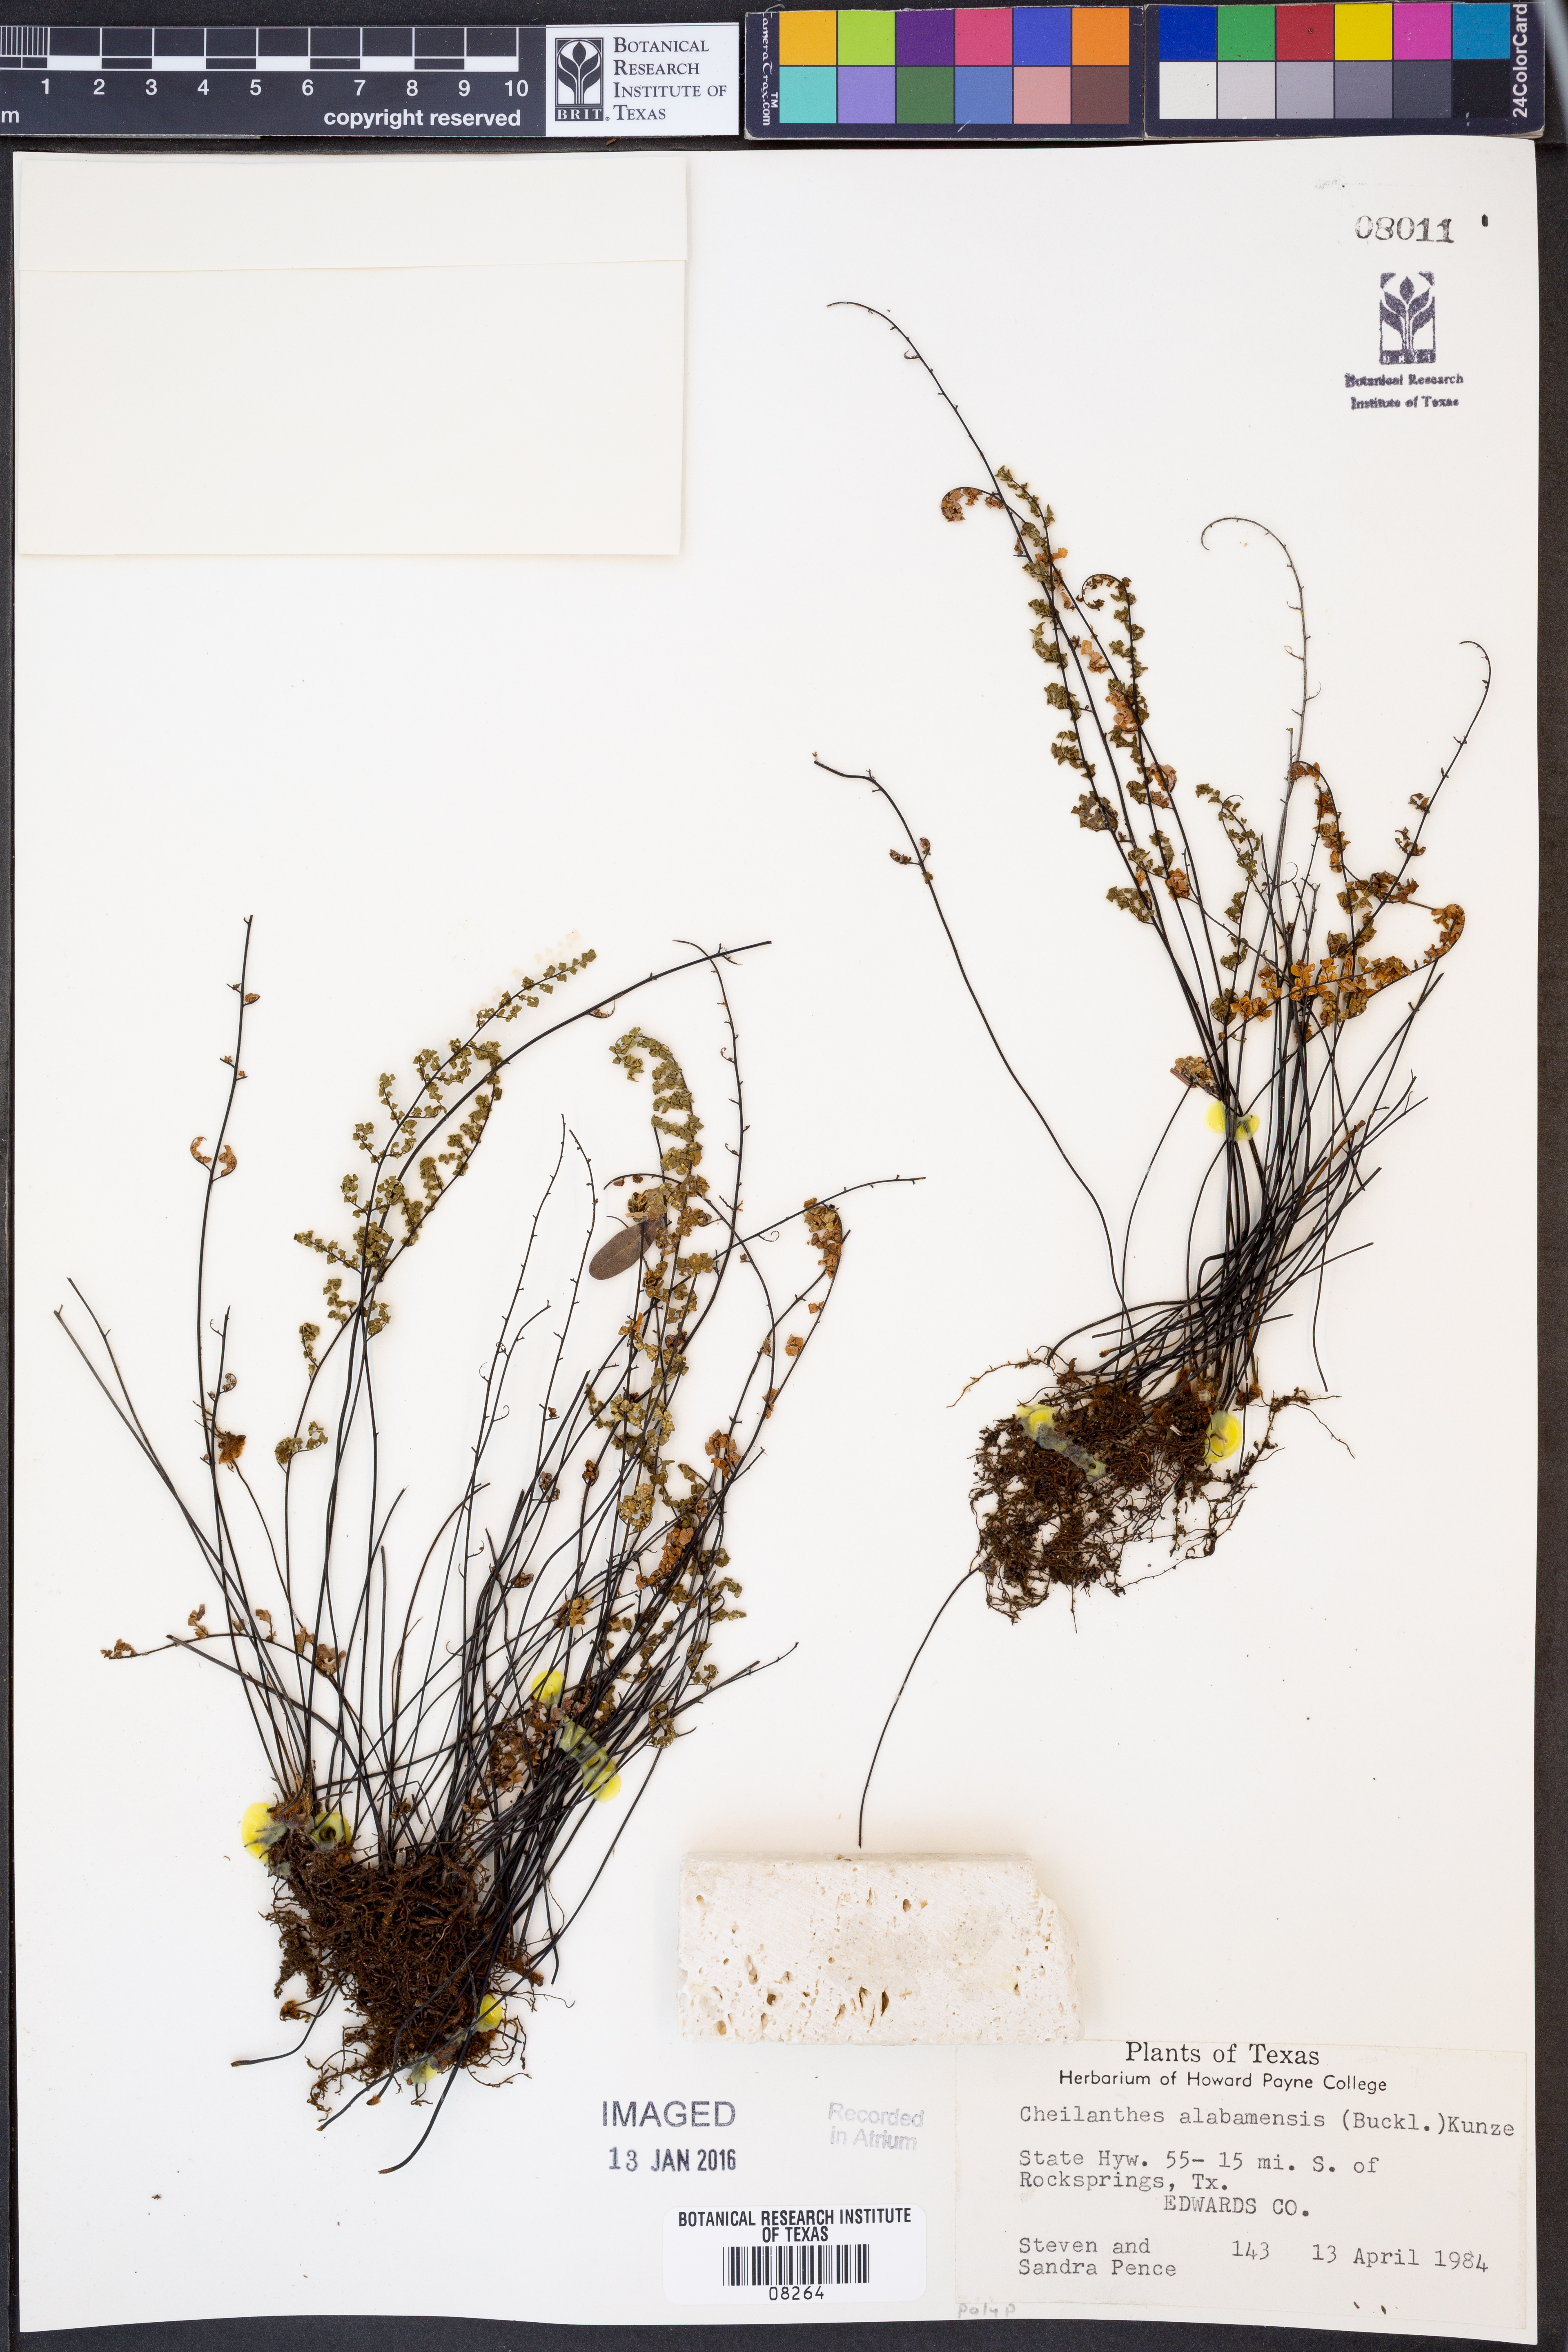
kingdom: Plantae
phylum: Tracheophyta
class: Polypodiopsida
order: Polypodiales
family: Pteridaceae
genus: Myriopteris
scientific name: Myriopteris alabamensis
